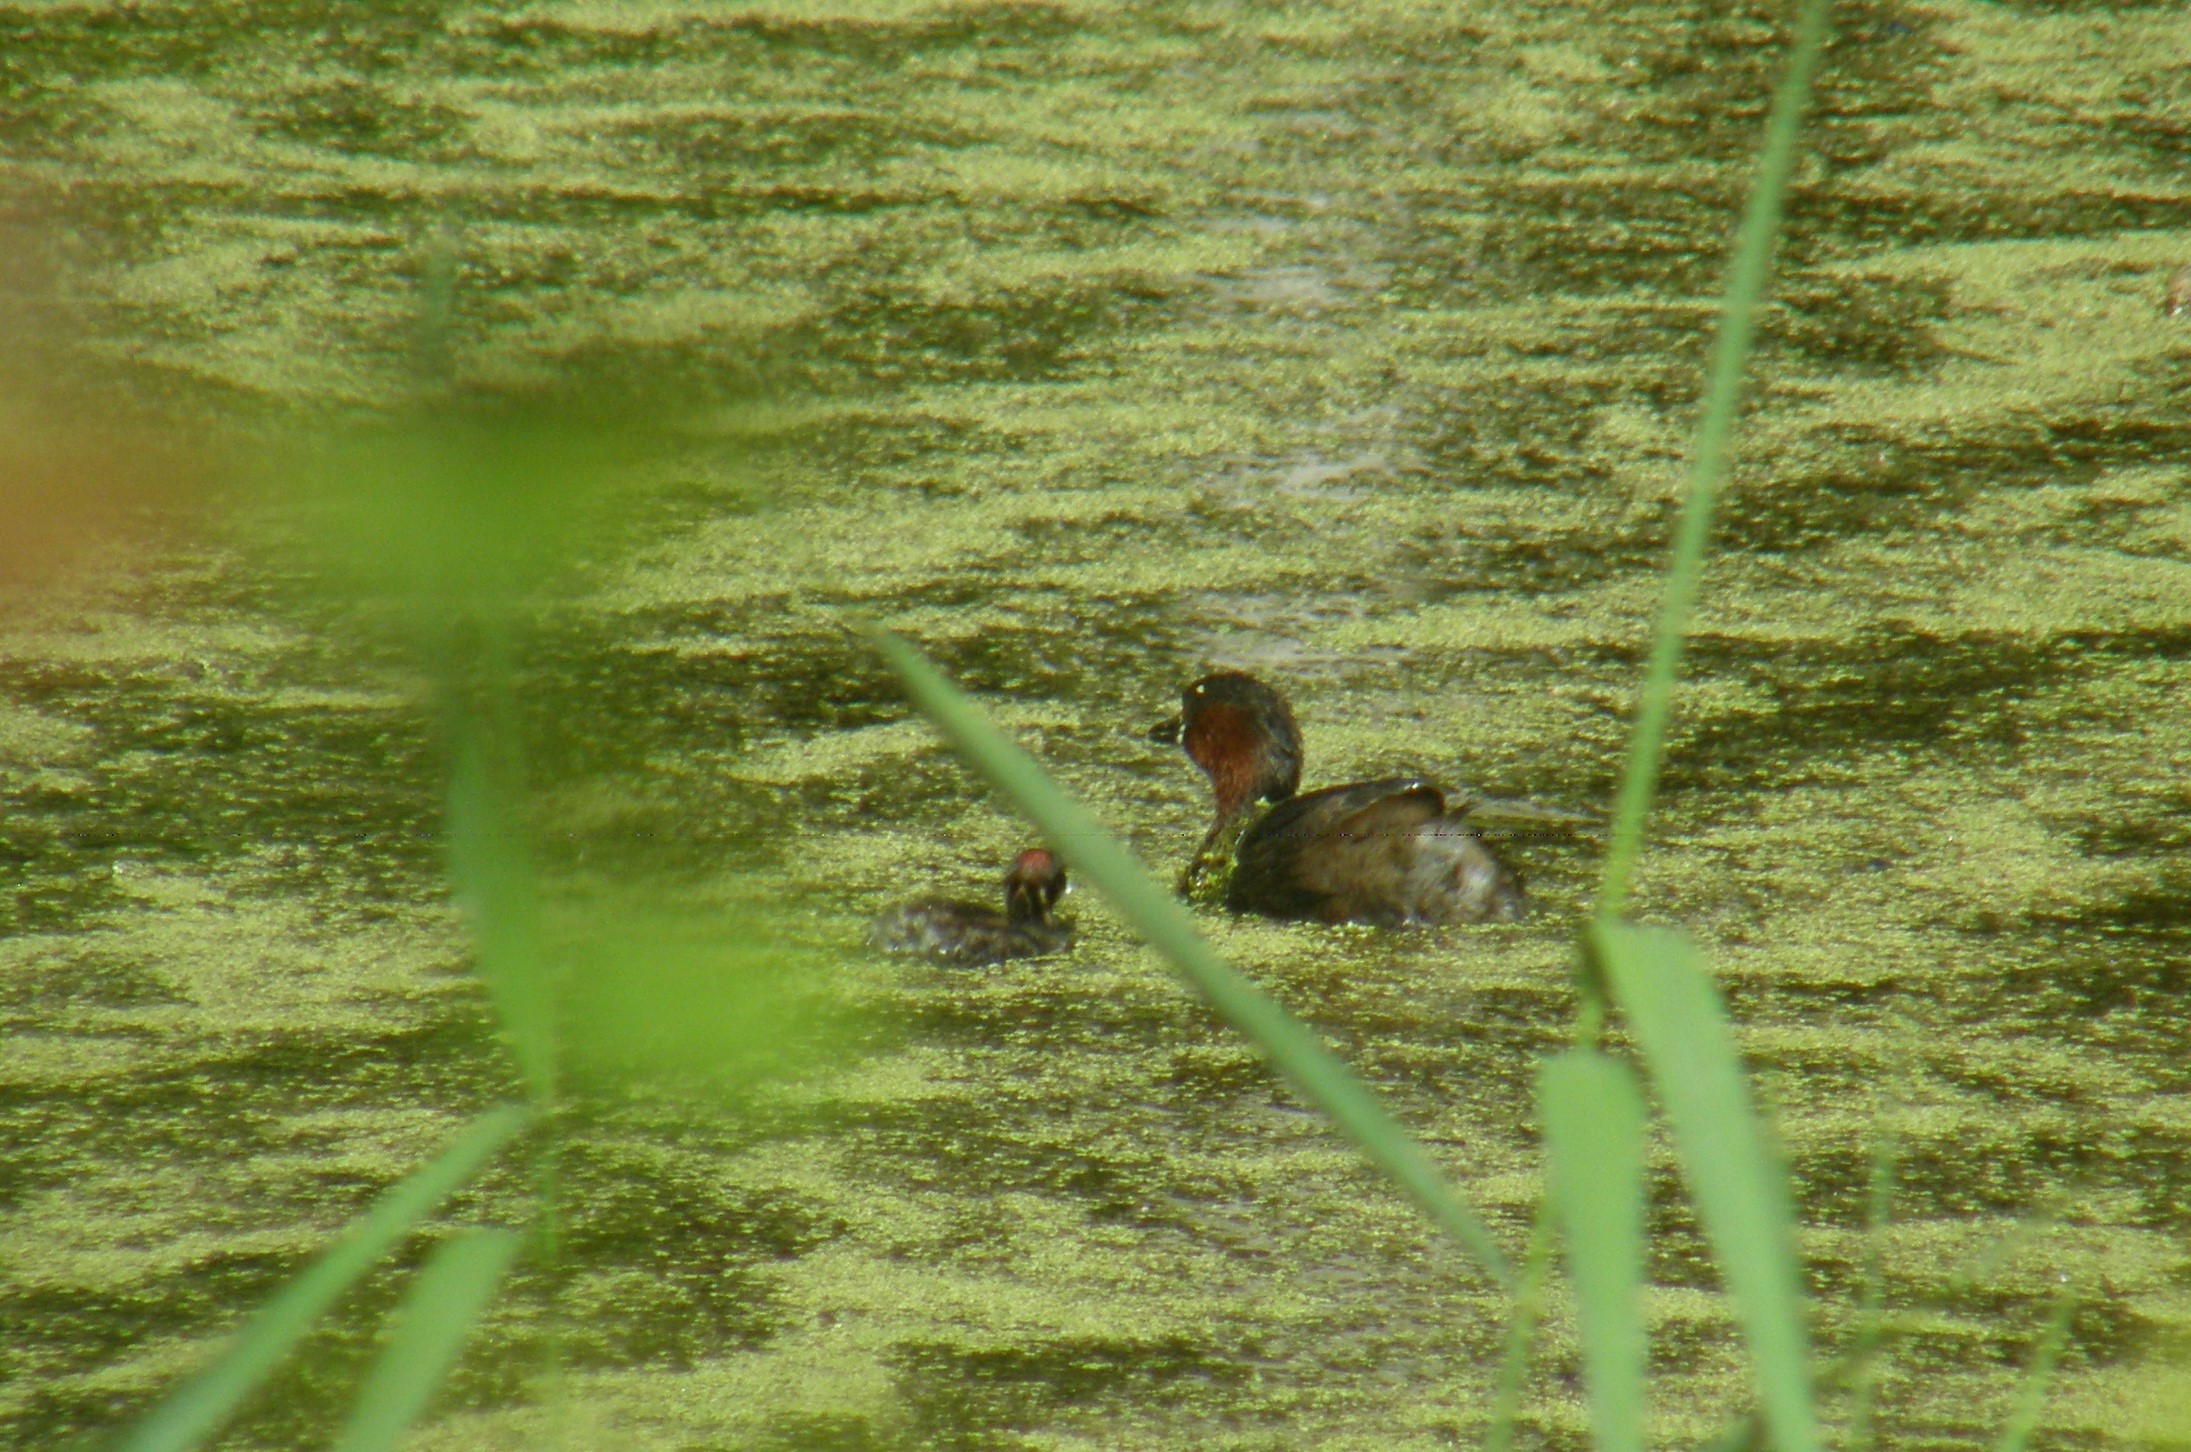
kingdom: Animalia
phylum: Chordata
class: Aves
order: Podicipediformes
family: Podicipedidae
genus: Tachybaptus
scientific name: Tachybaptus ruficollis
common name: Lille lappedykker
